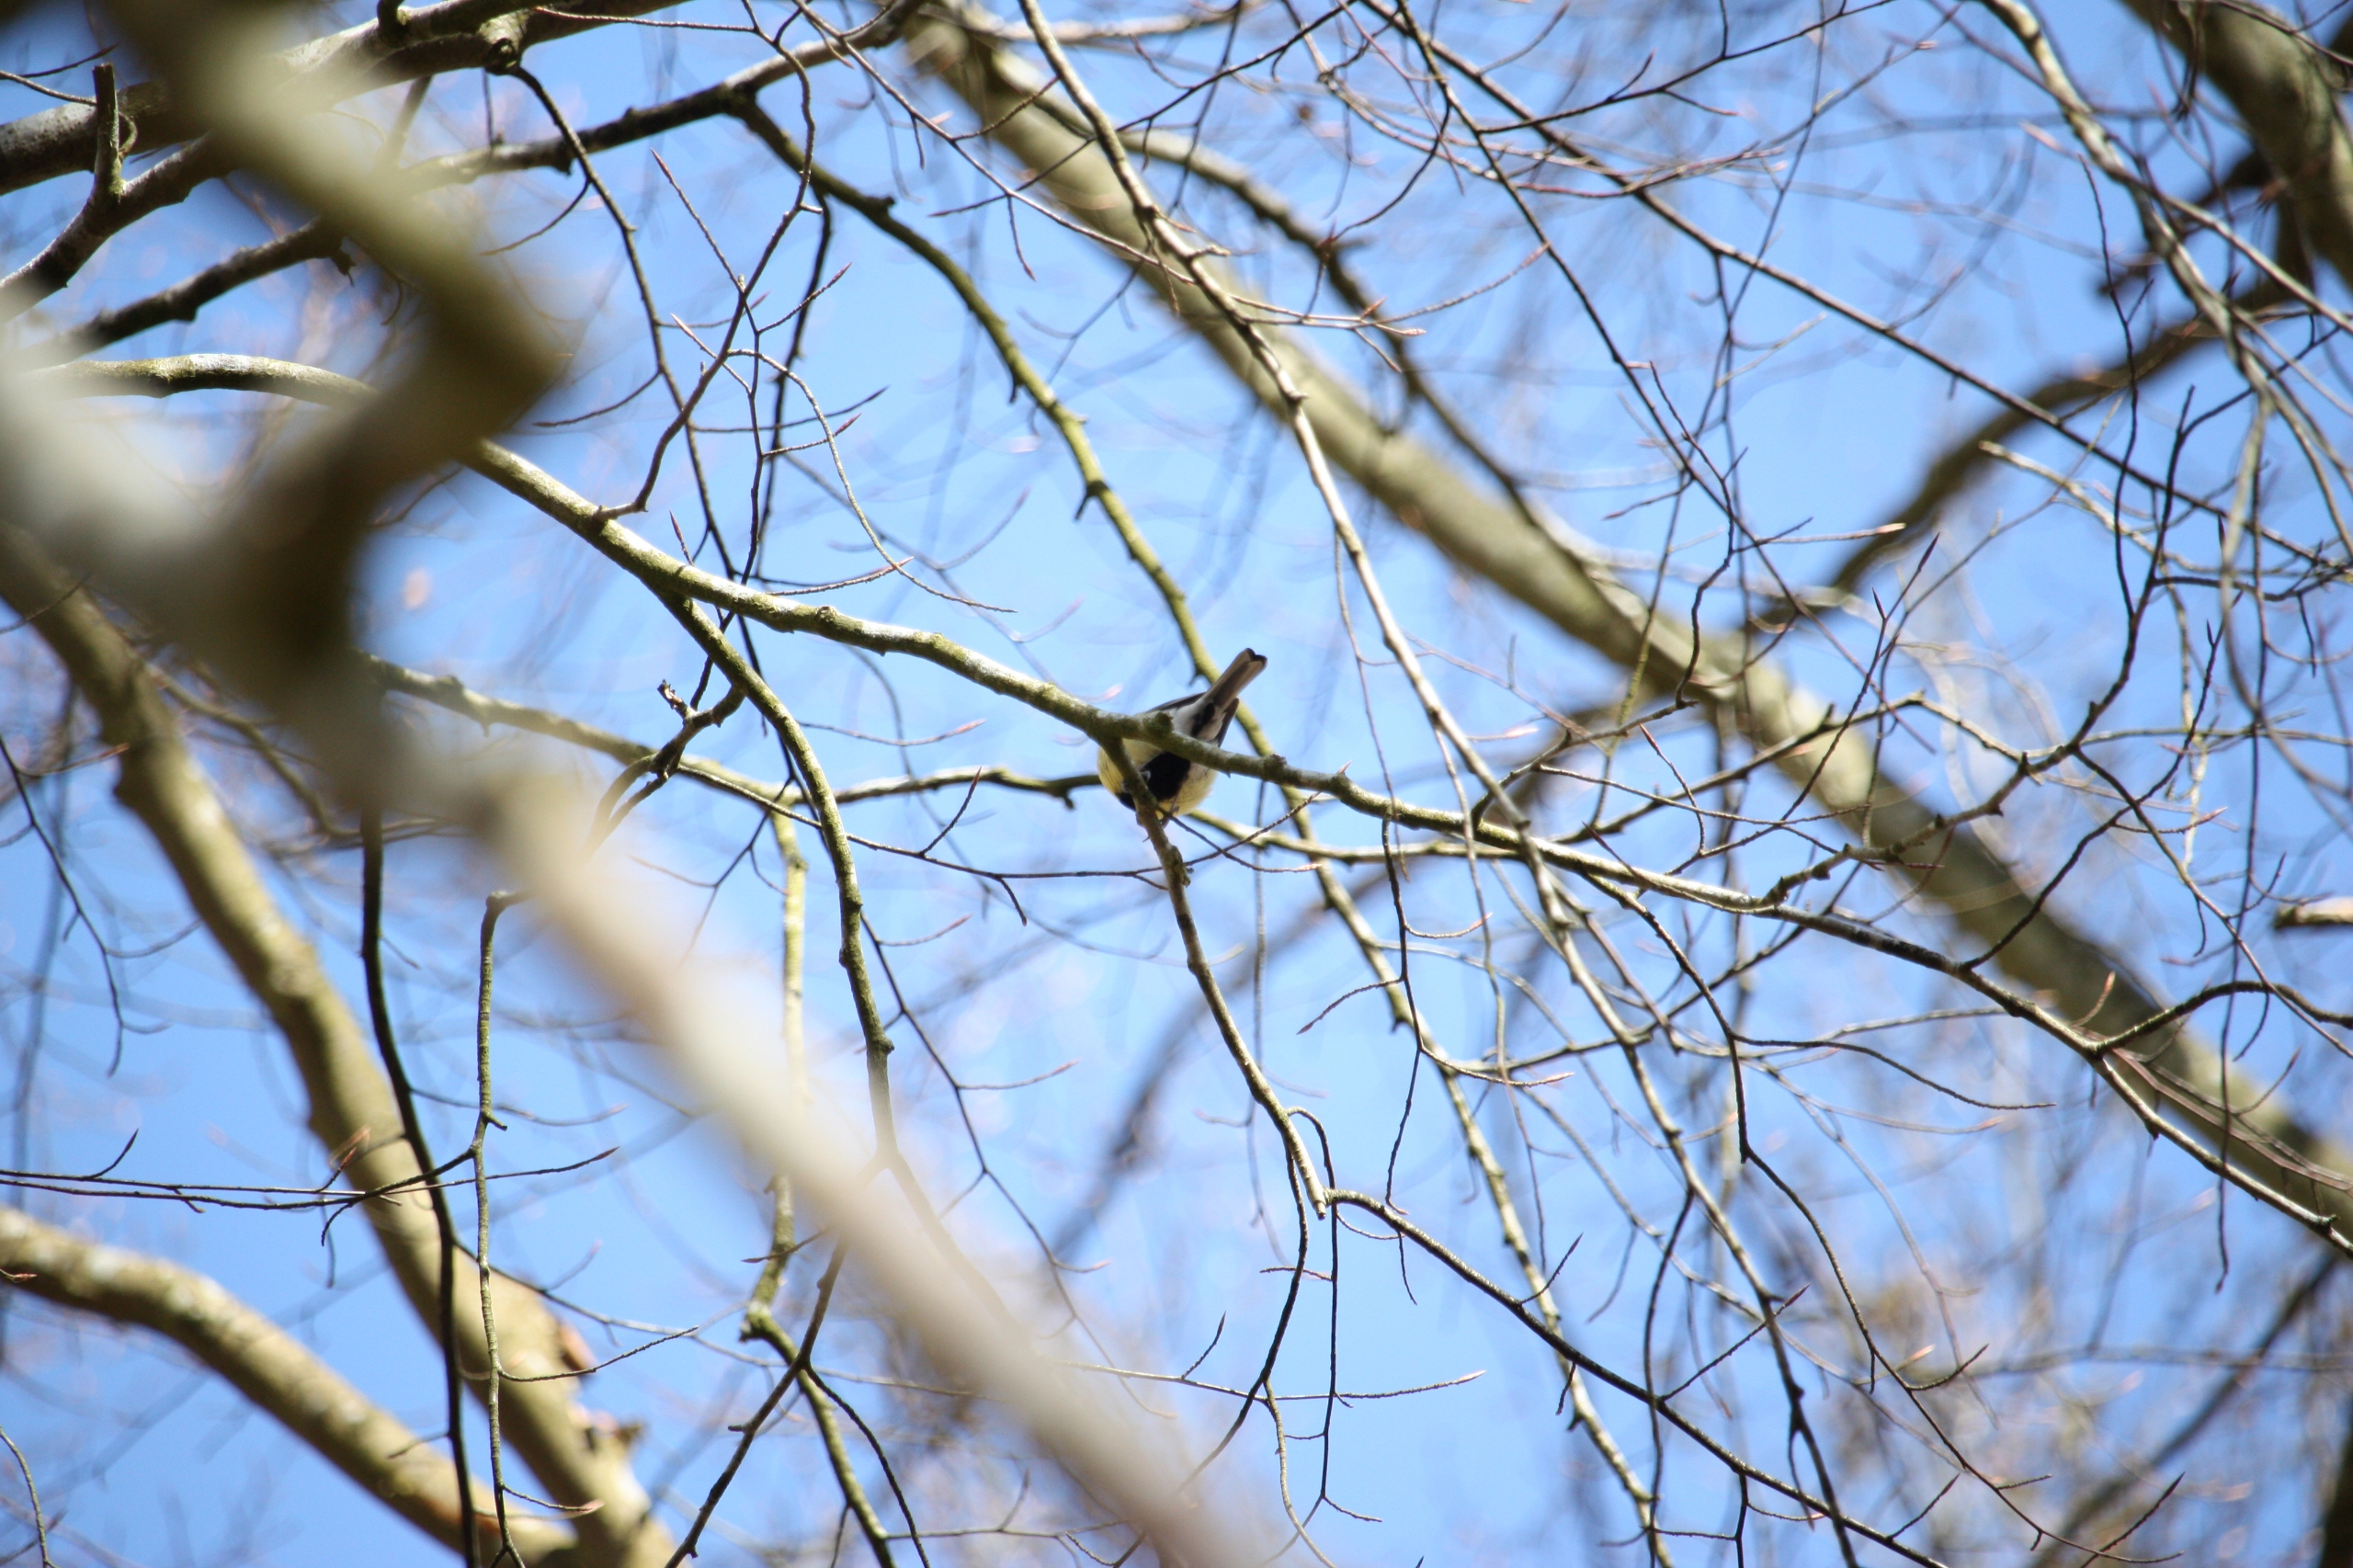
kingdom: Animalia
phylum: Chordata
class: Aves
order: Passeriformes
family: Paridae
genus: Parus
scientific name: Parus major
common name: Musvit
